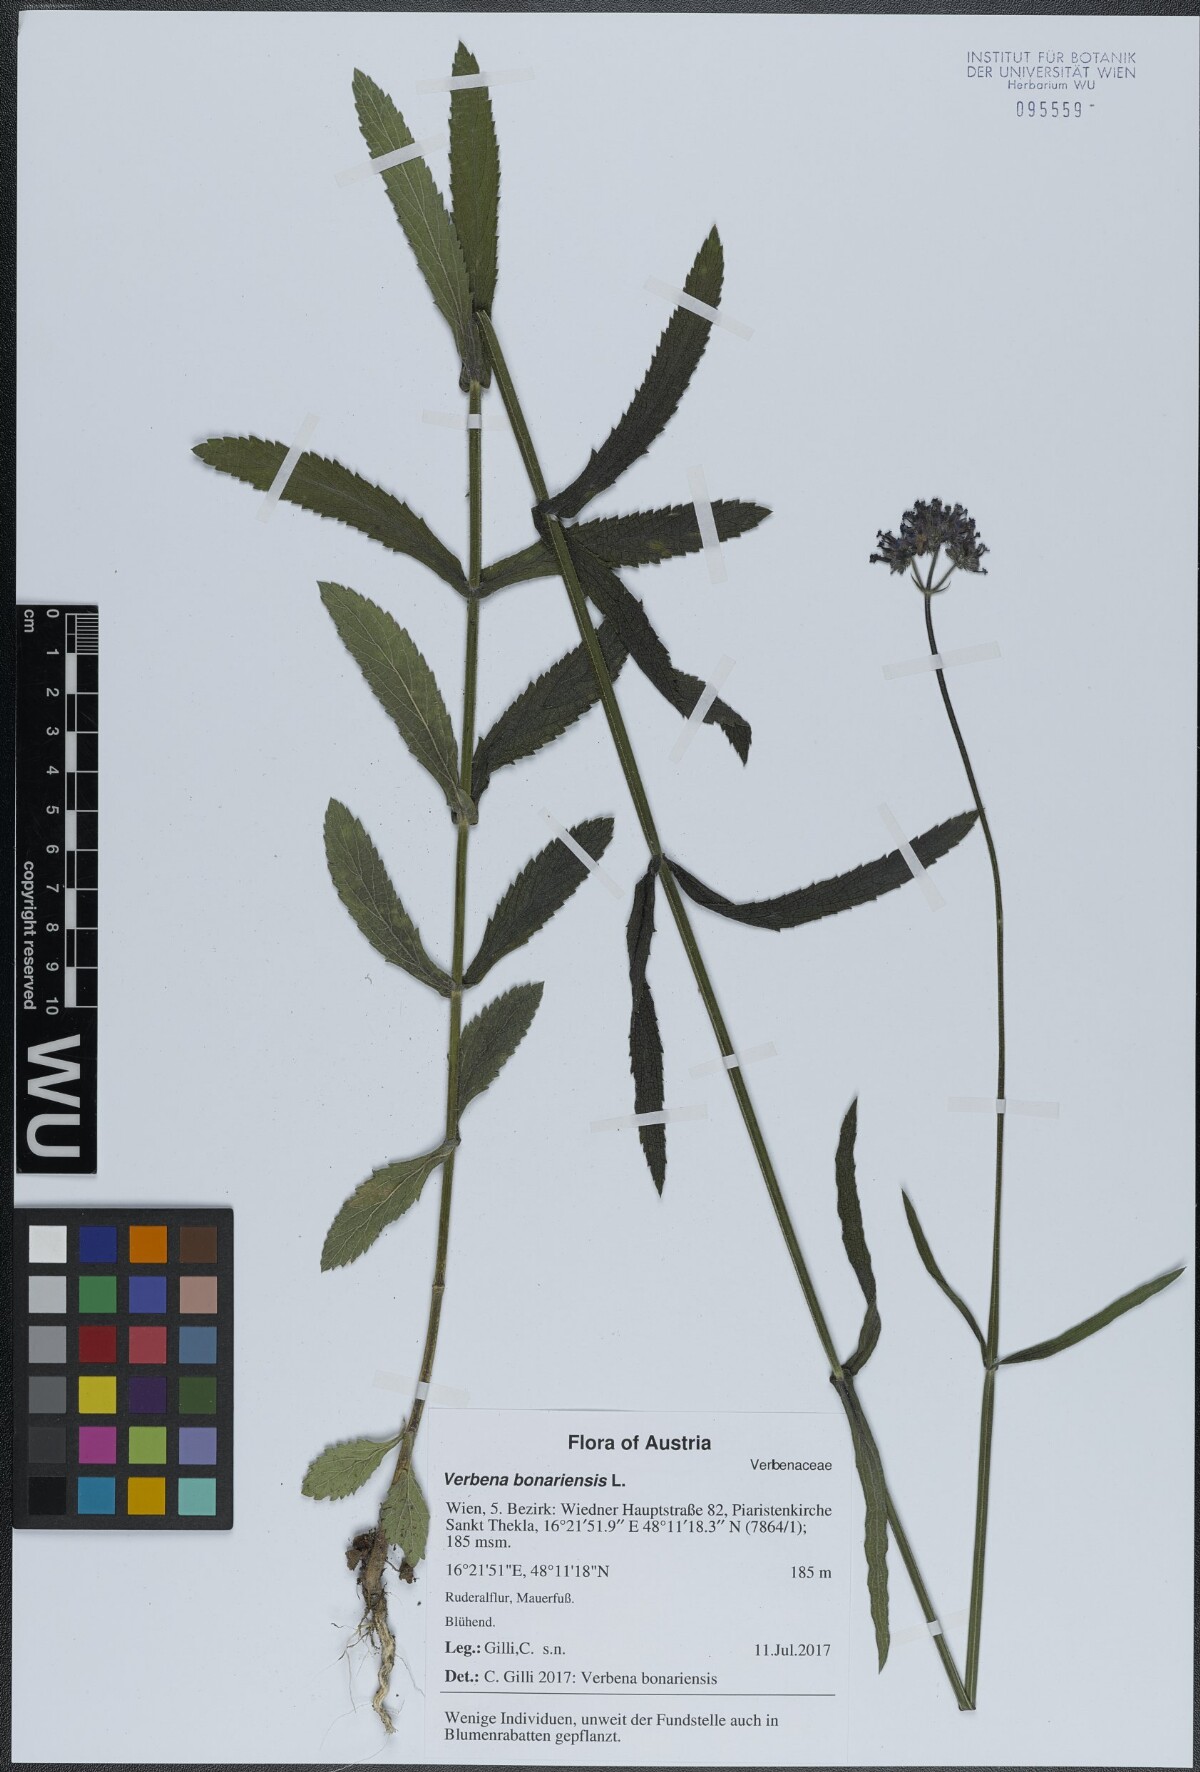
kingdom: Plantae
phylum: Tracheophyta
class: Magnoliopsida
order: Lamiales
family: Verbenaceae
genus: Verbena
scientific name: Verbena bonariensis
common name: Purpletop vervain
